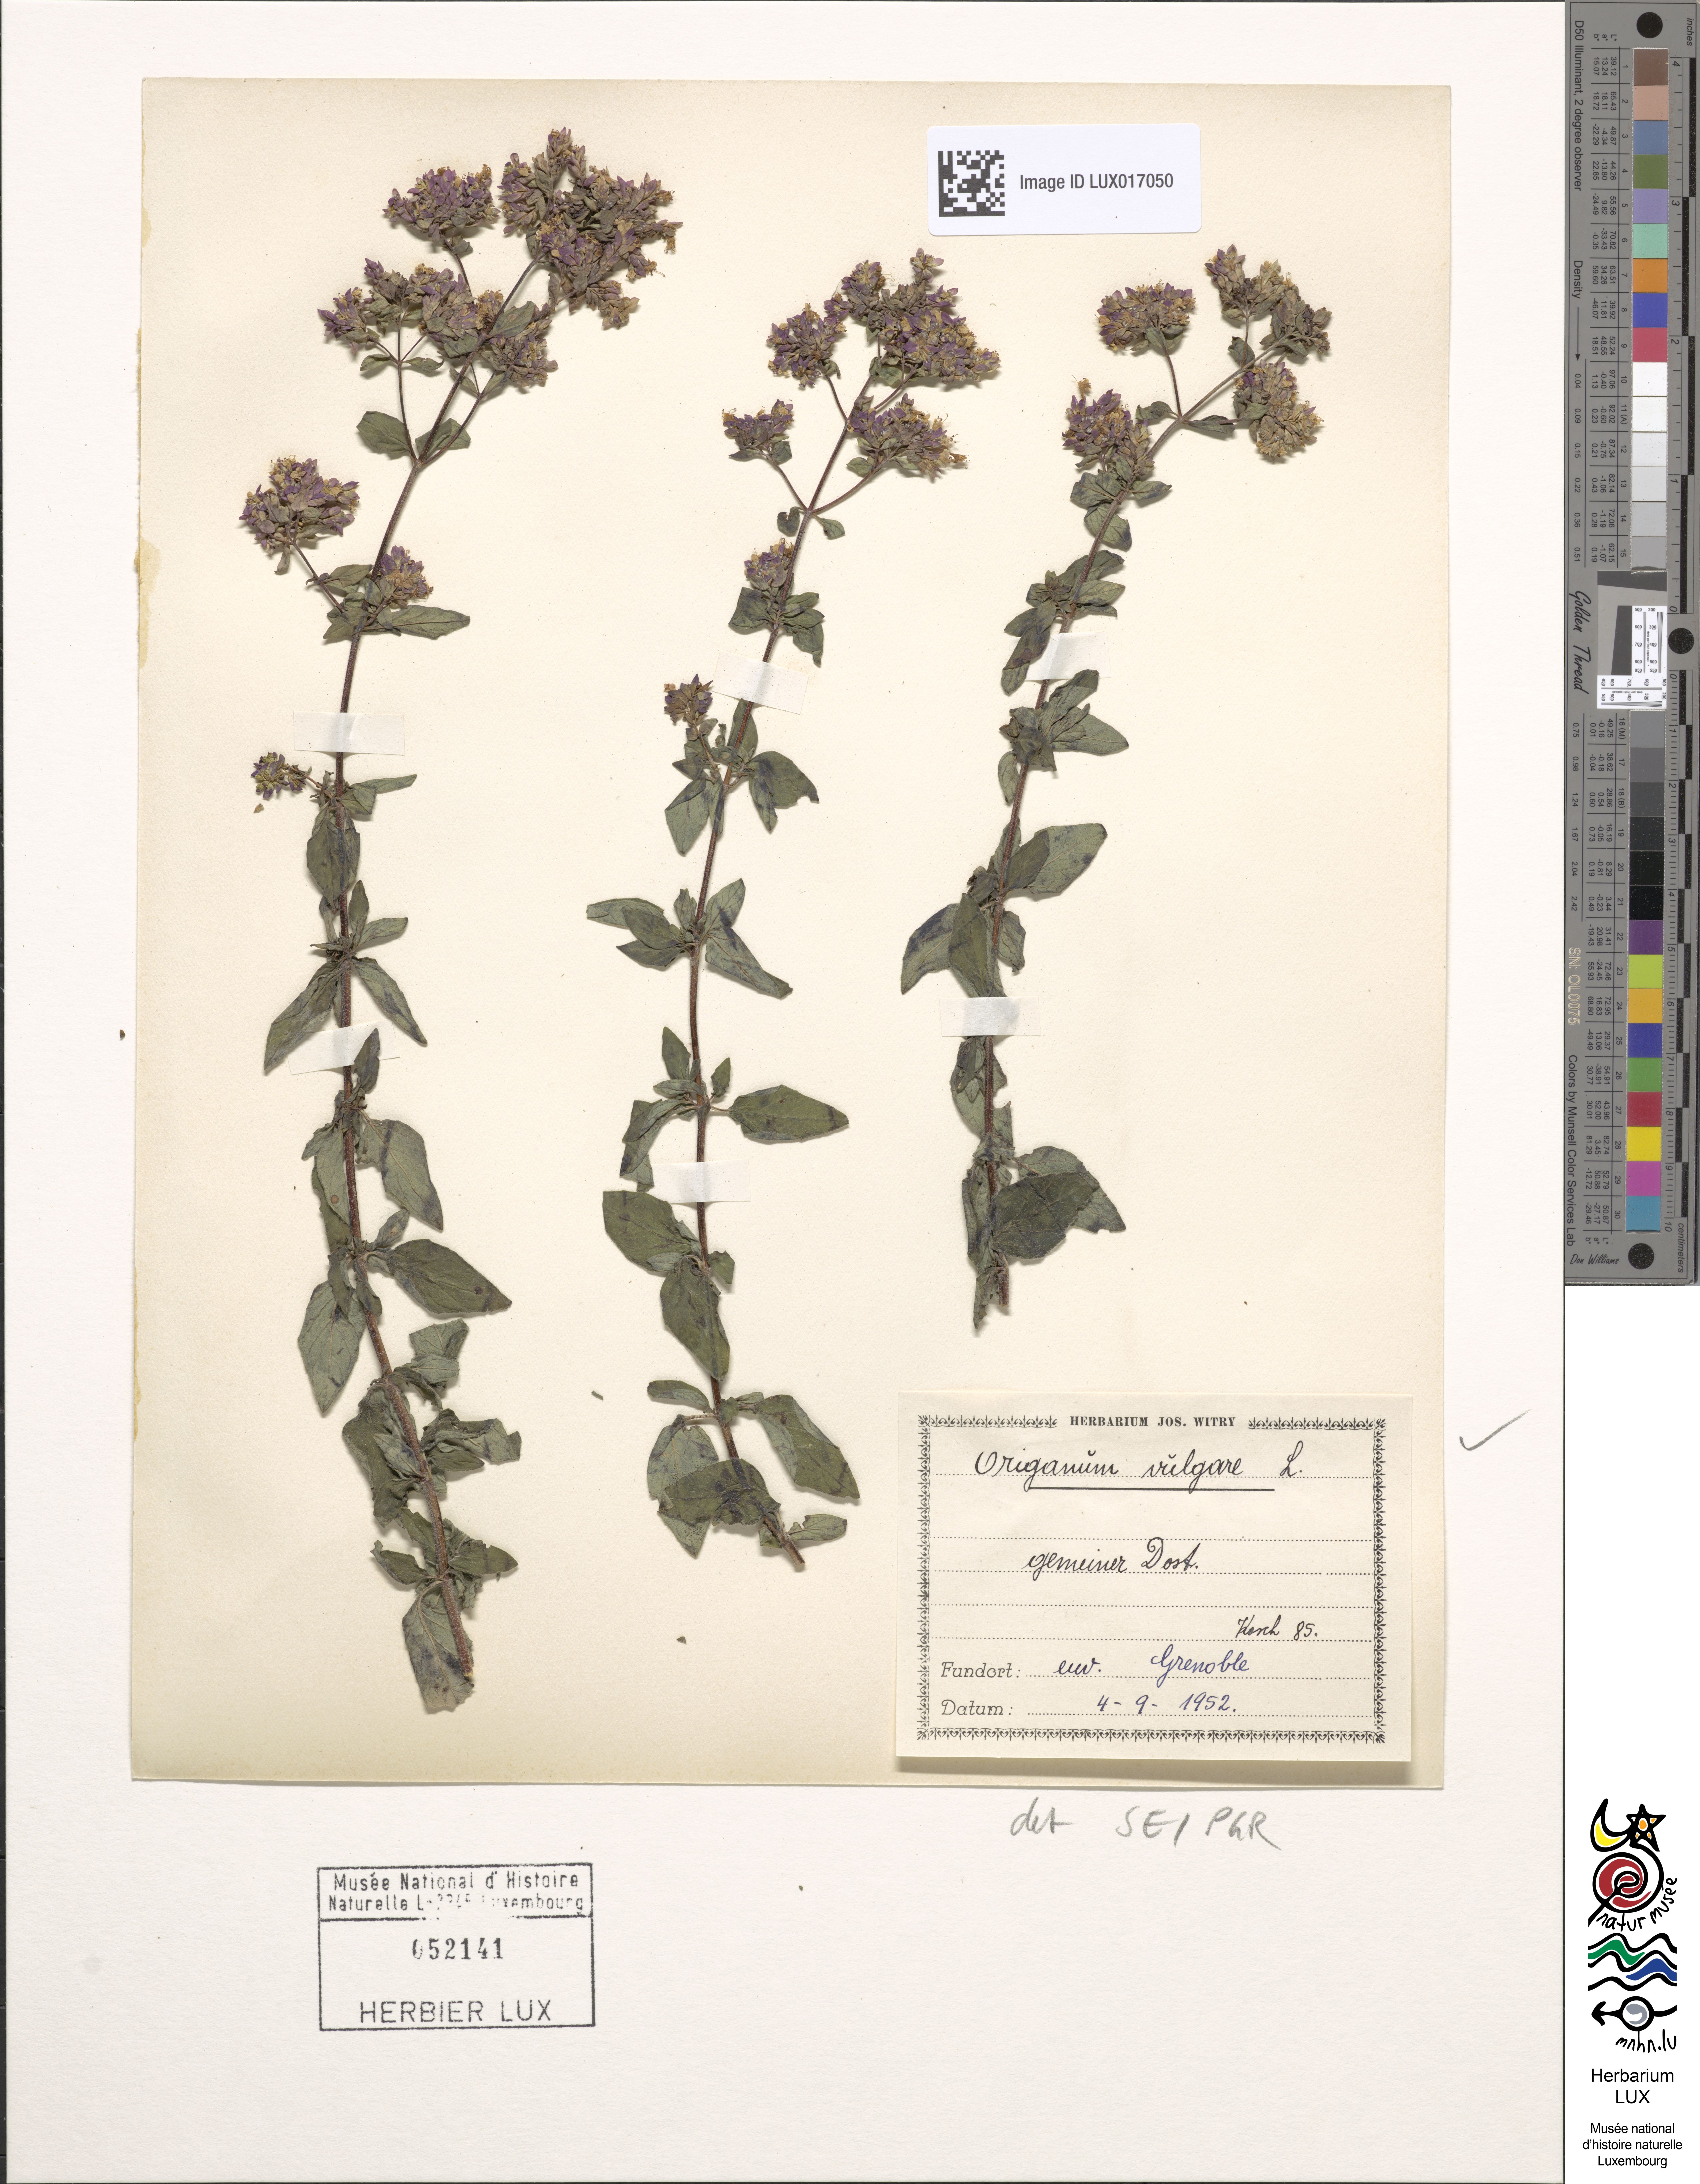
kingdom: Plantae
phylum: Tracheophyta
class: Magnoliopsida
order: Lamiales
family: Lamiaceae
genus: Origanum
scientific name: Origanum vulgare
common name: Wild marjoram
